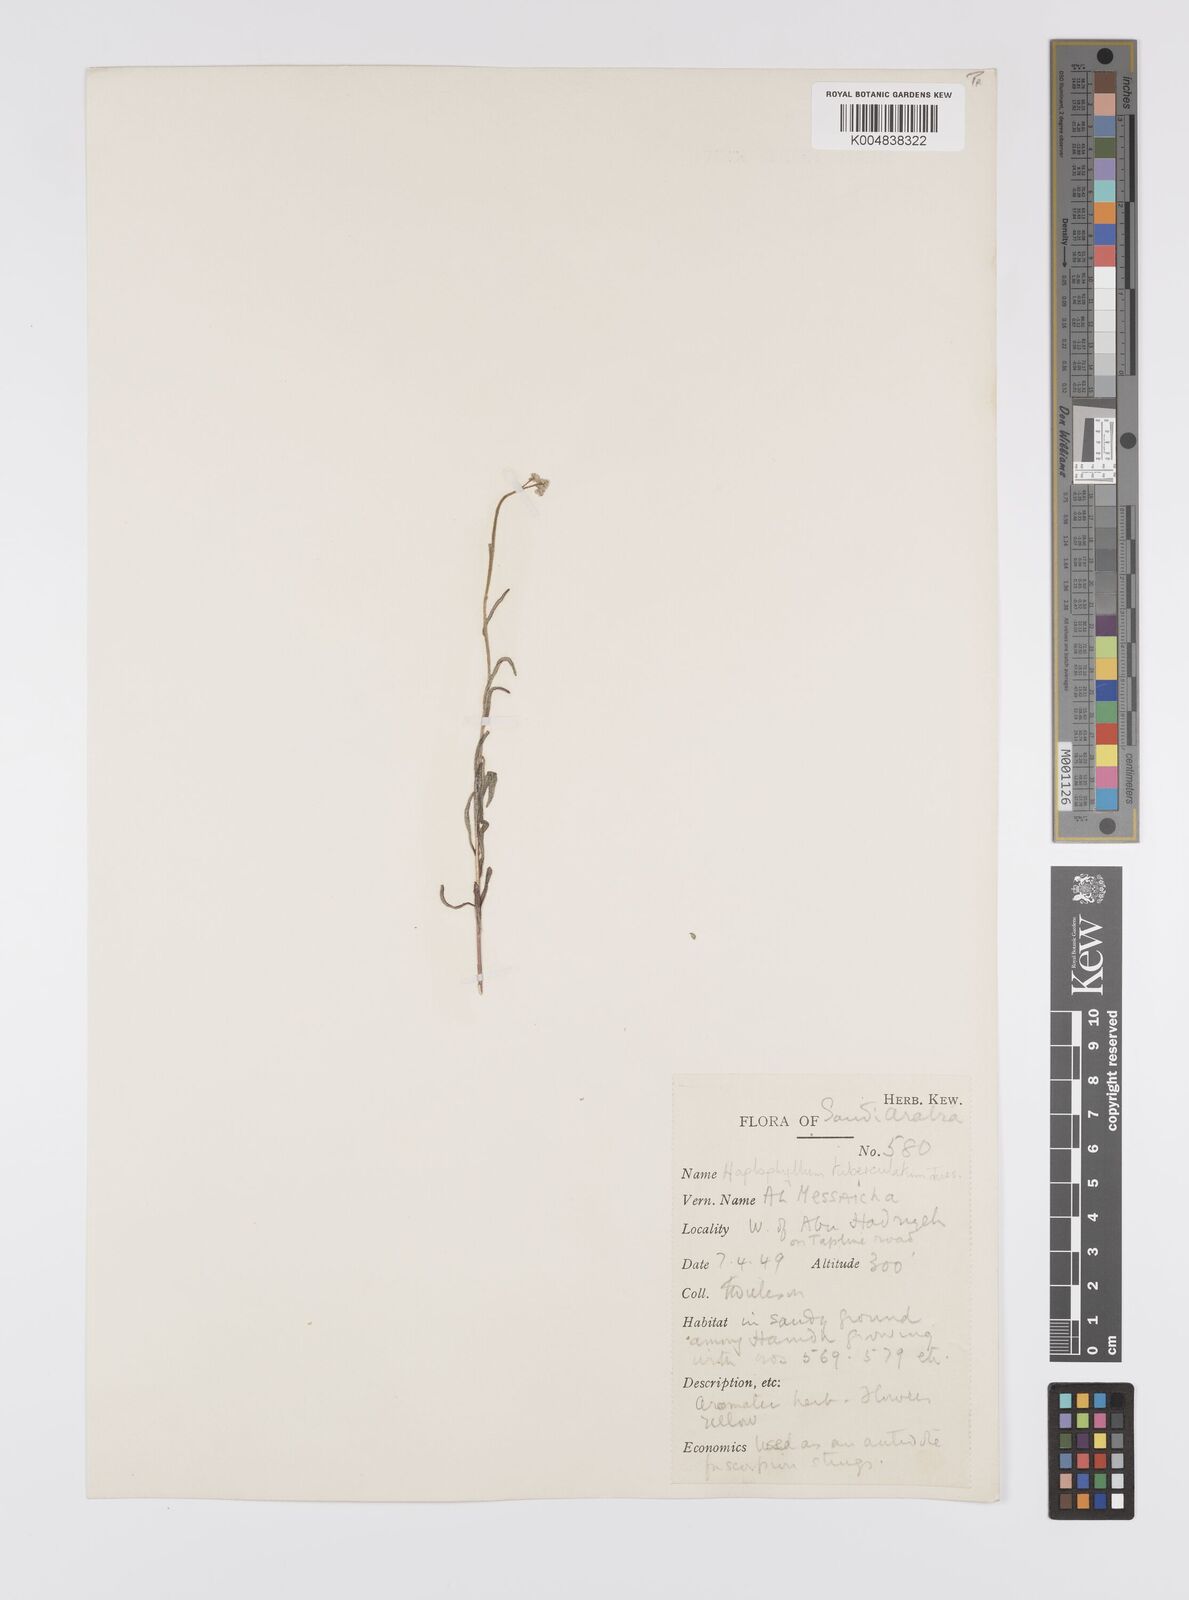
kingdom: Plantae
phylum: Tracheophyta
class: Magnoliopsida
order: Sapindales
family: Rutaceae
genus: Haplophyllum
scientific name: Haplophyllum tuberculatum
